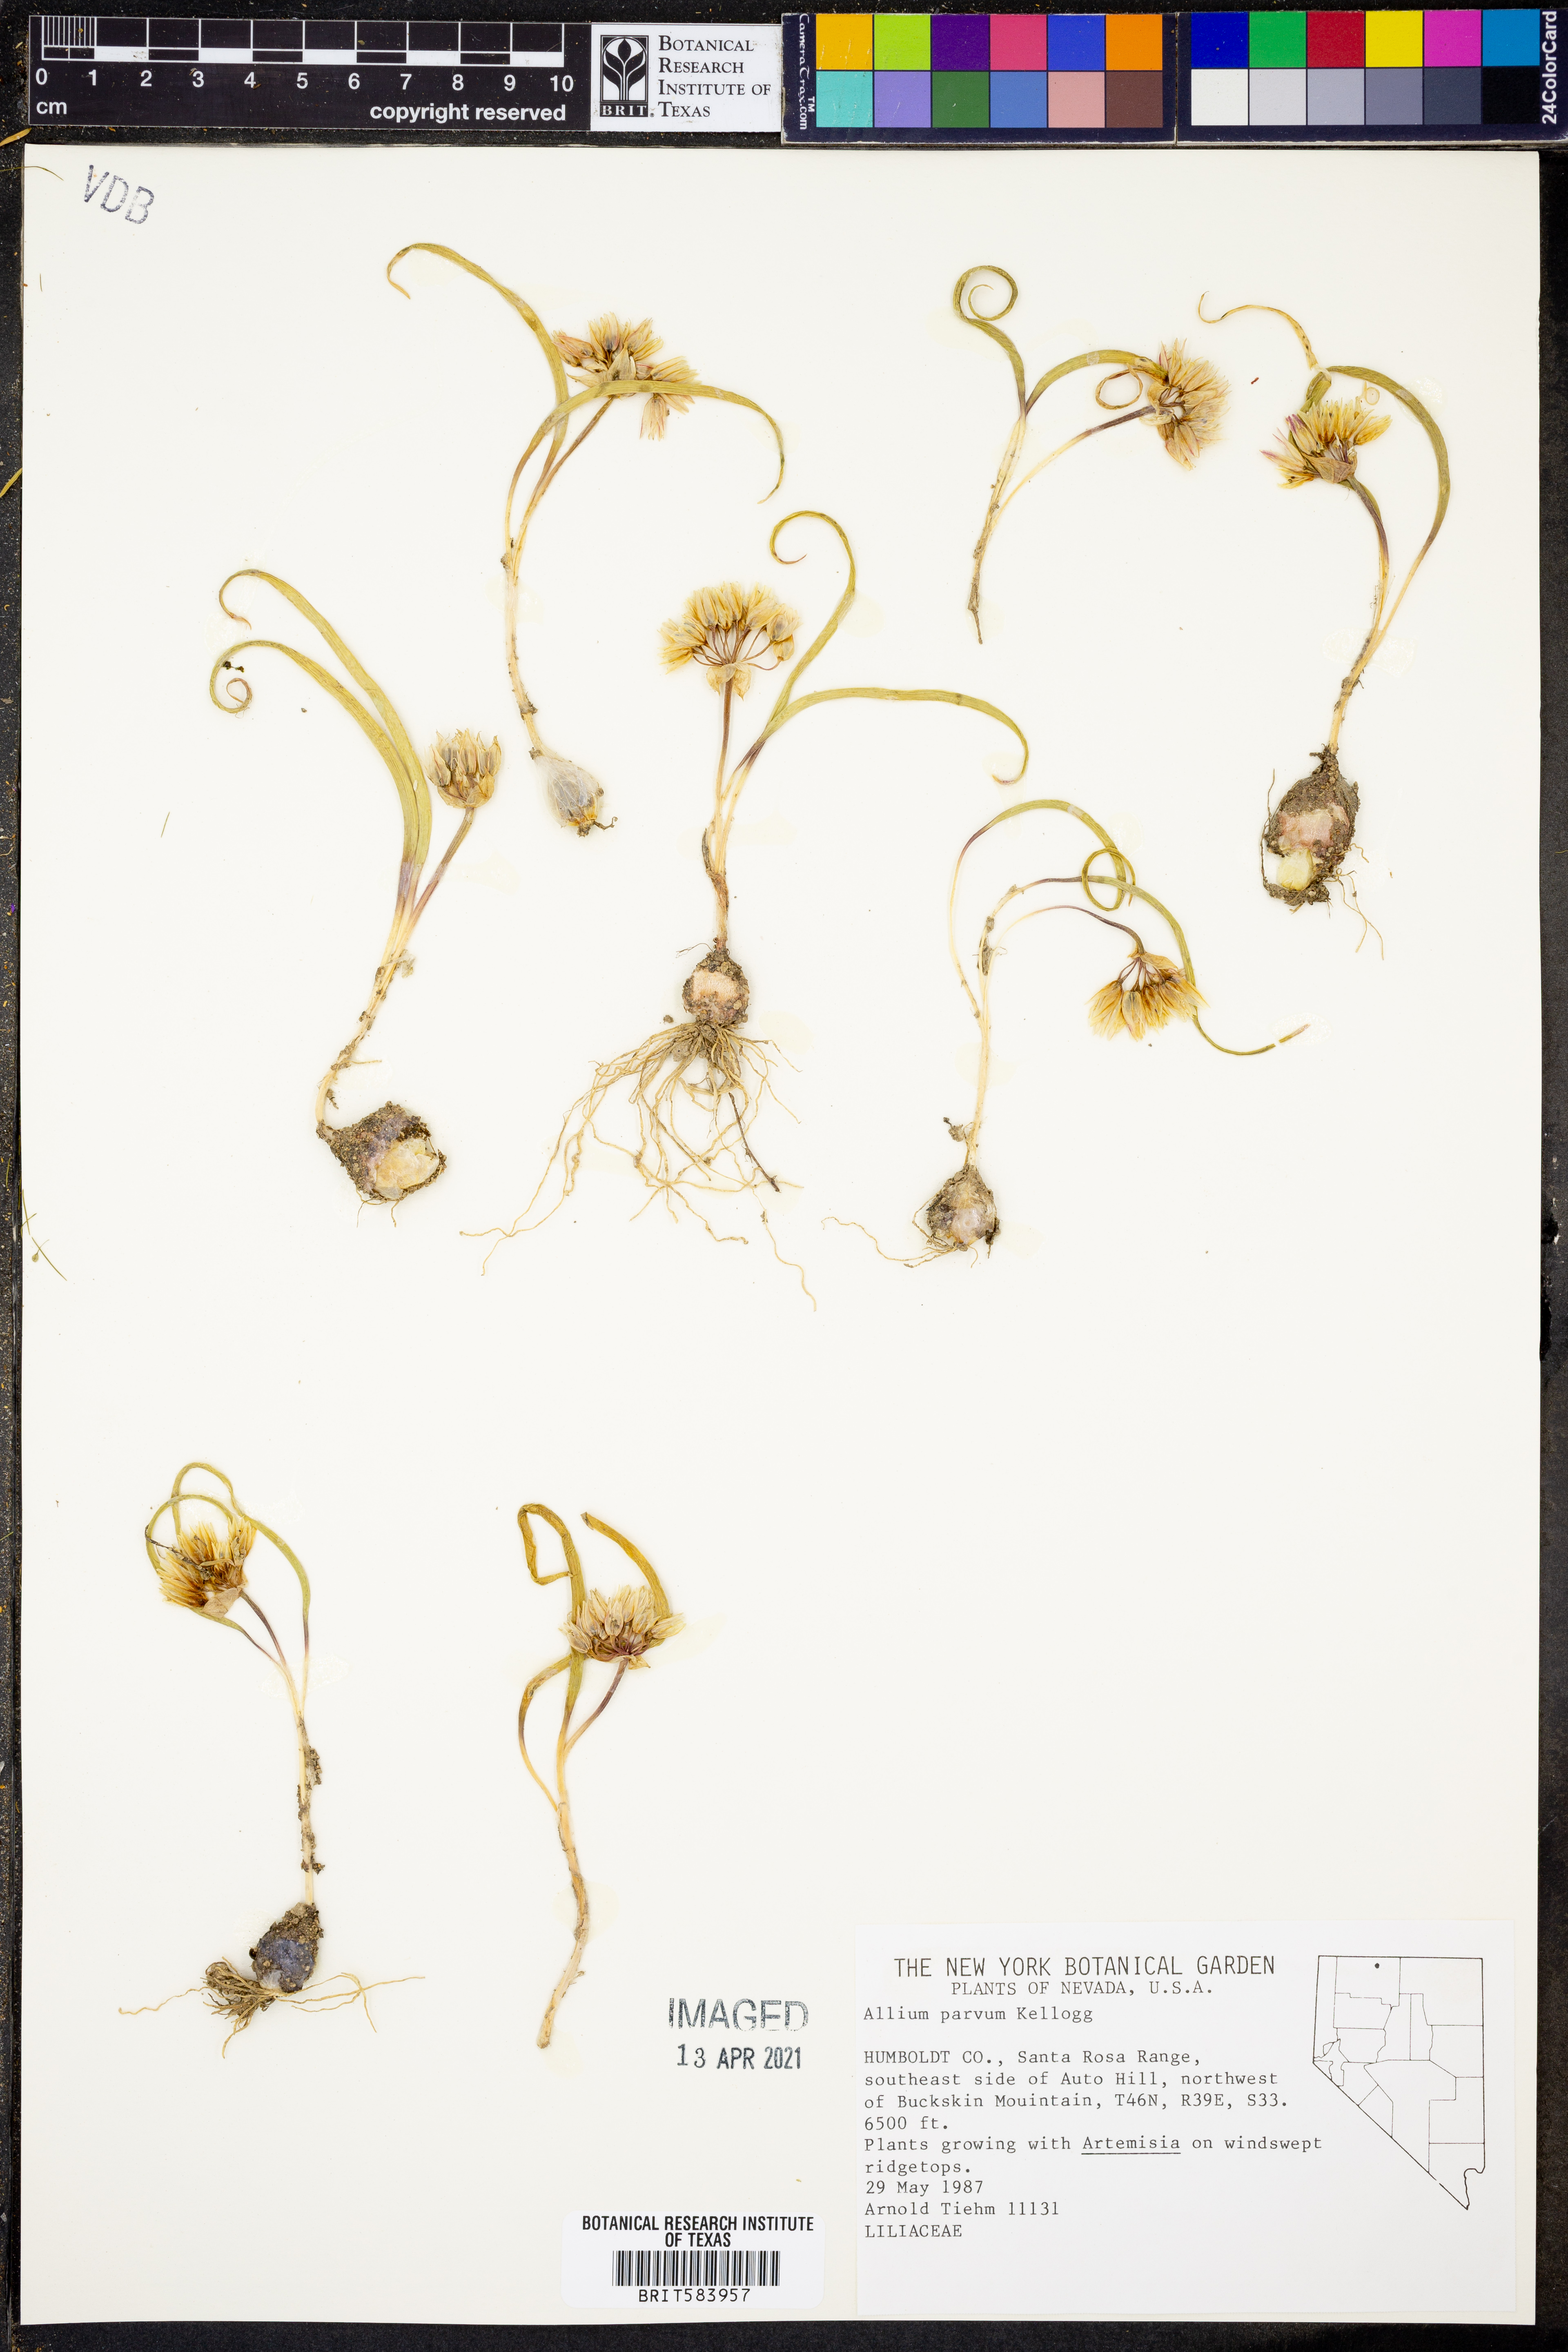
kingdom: Plantae
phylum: Tracheophyta
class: Liliopsida
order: Asparagales
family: Amaryllidaceae
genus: Allium
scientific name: Allium parvum
